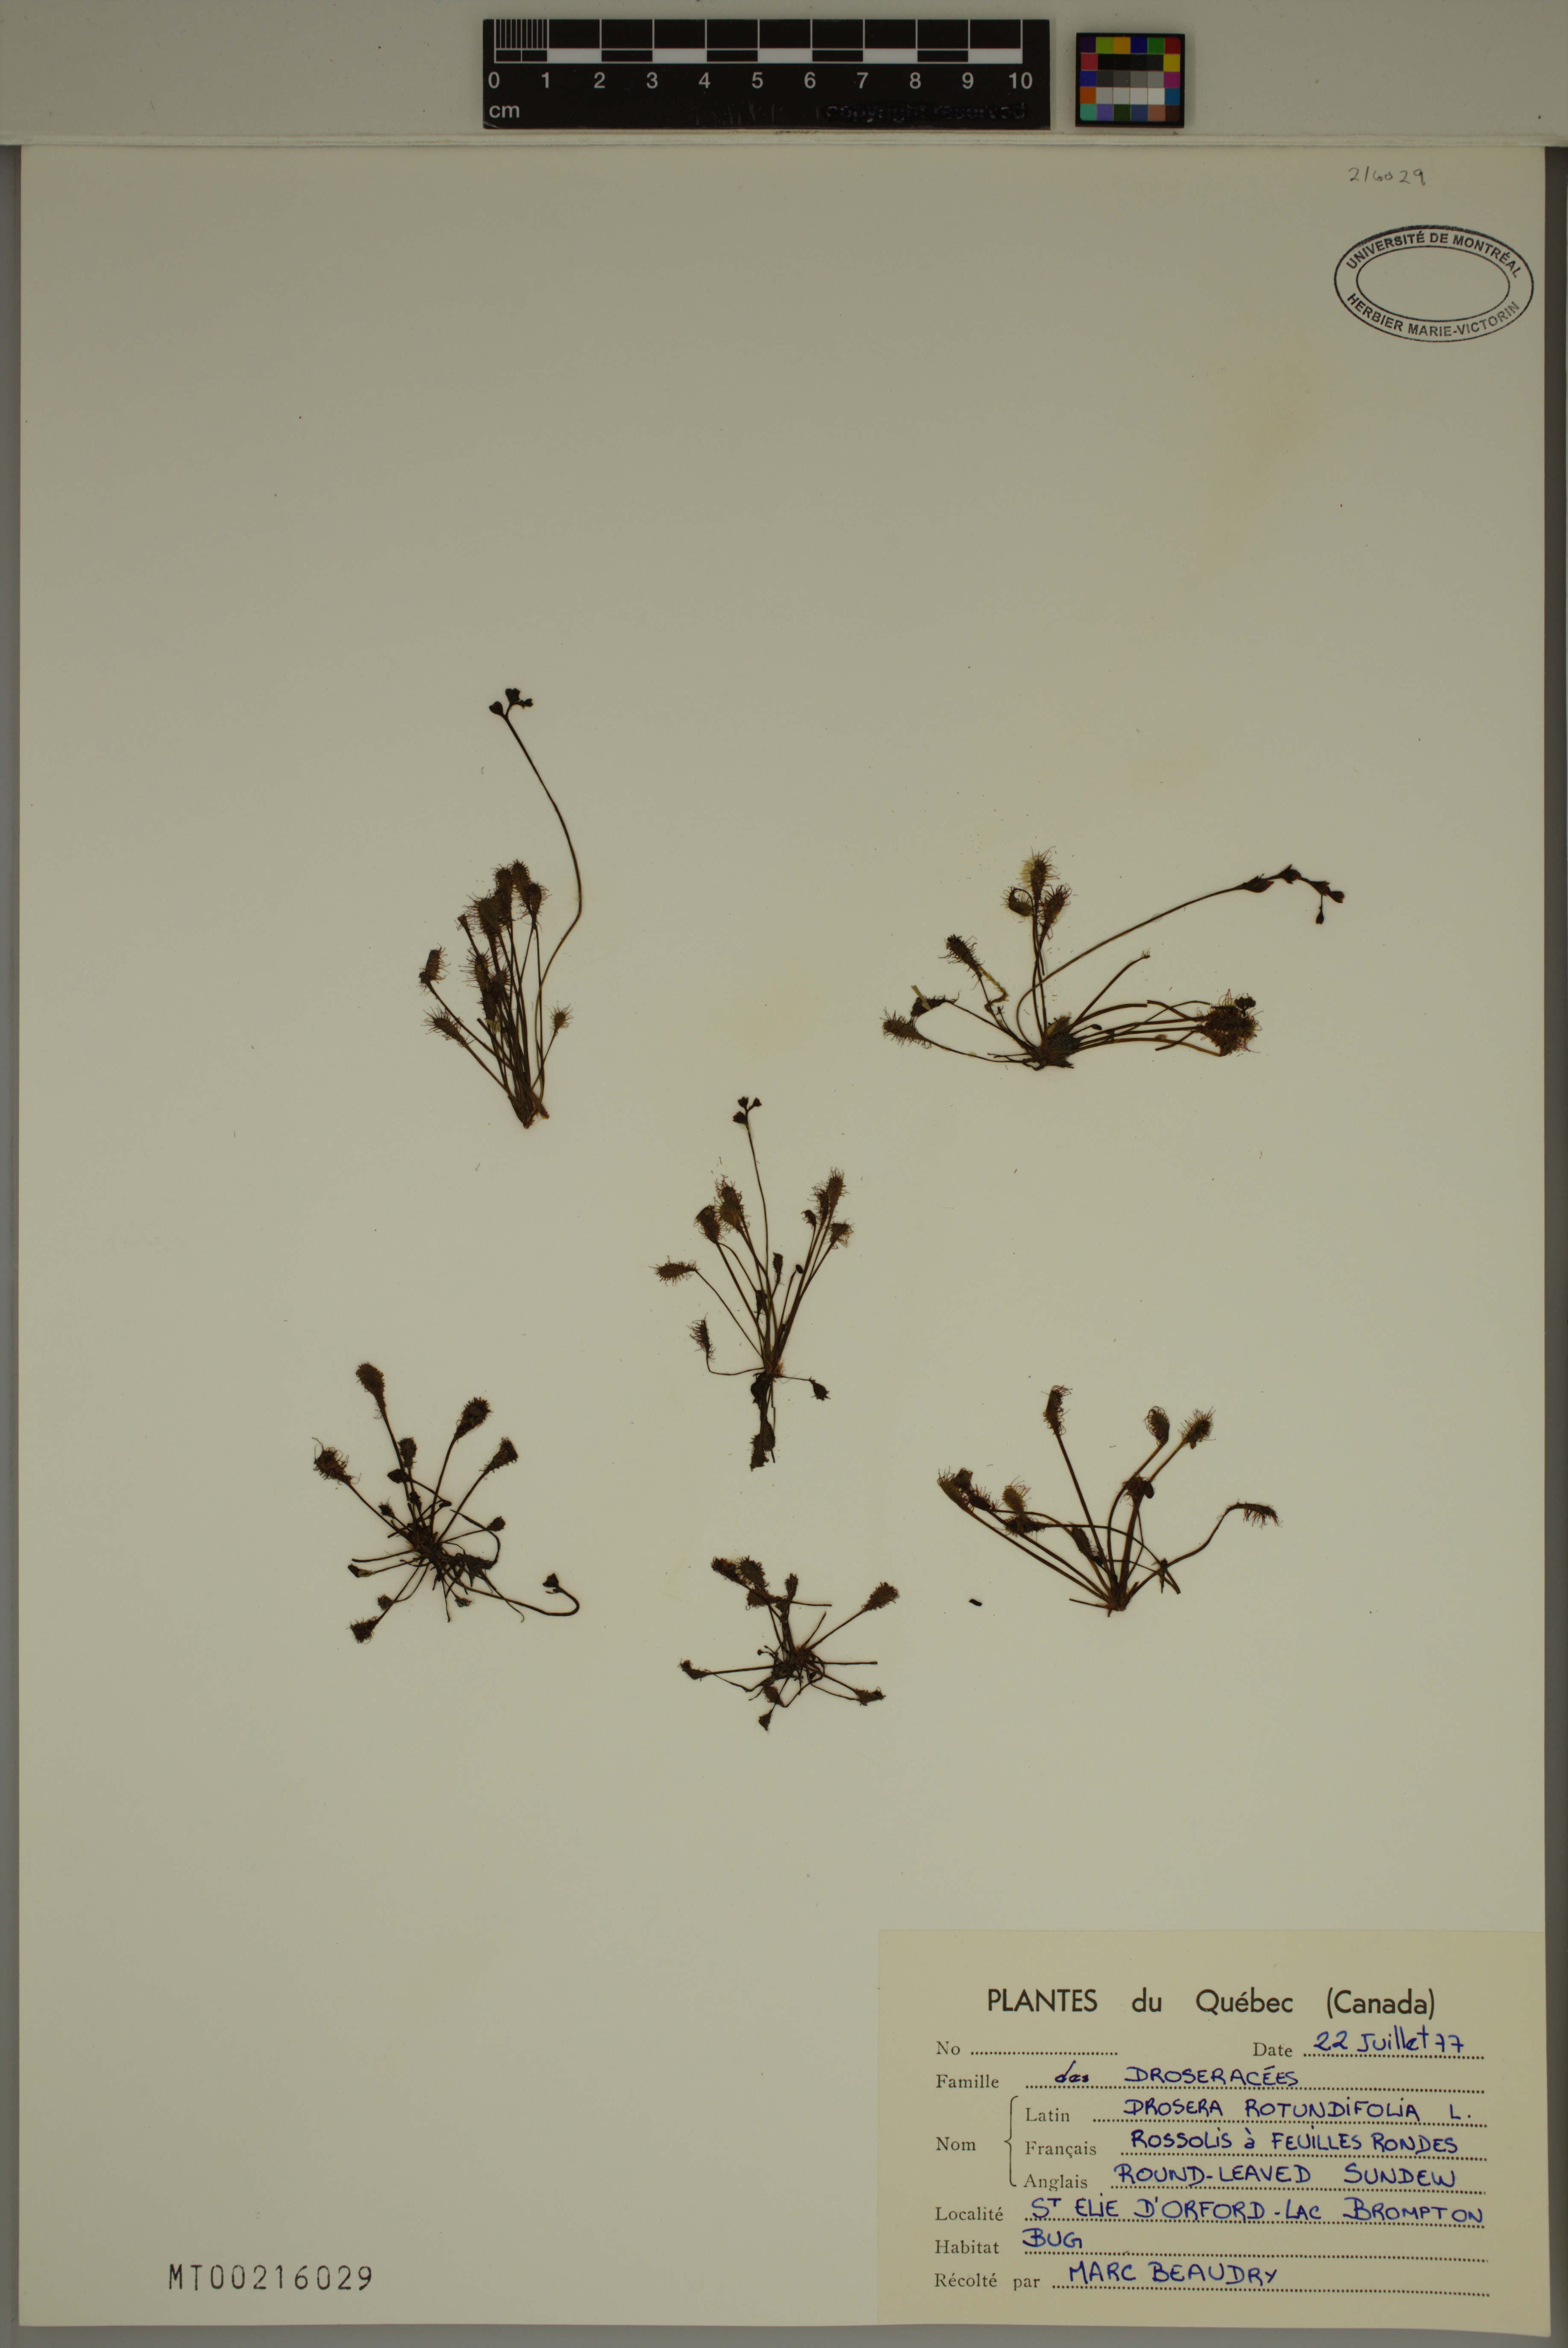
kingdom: Plantae
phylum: Tracheophyta
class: Magnoliopsida
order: Caryophyllales
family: Droseraceae
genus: Drosera
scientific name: Drosera rotundifolia
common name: Round-leaved sundew
